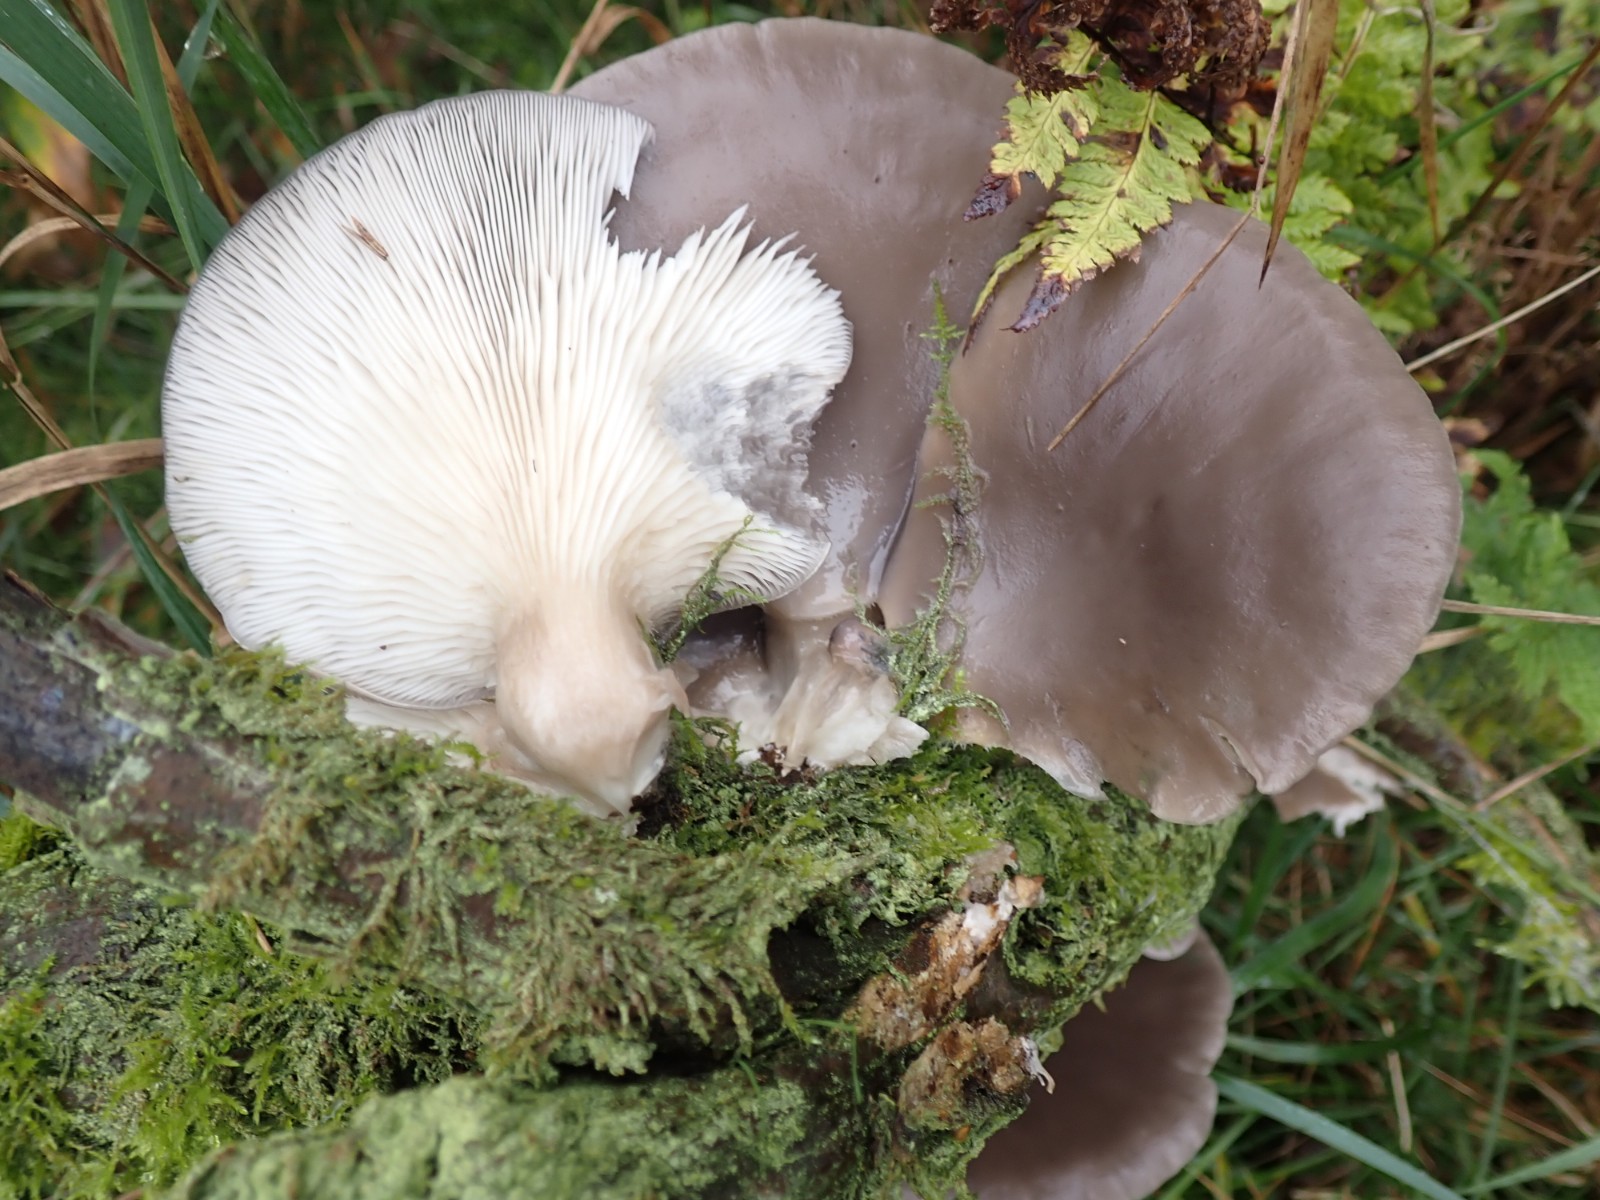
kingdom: Fungi
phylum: Basidiomycota
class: Agaricomycetes
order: Agaricales
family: Pleurotaceae
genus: Pleurotus
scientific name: Pleurotus ostreatus
